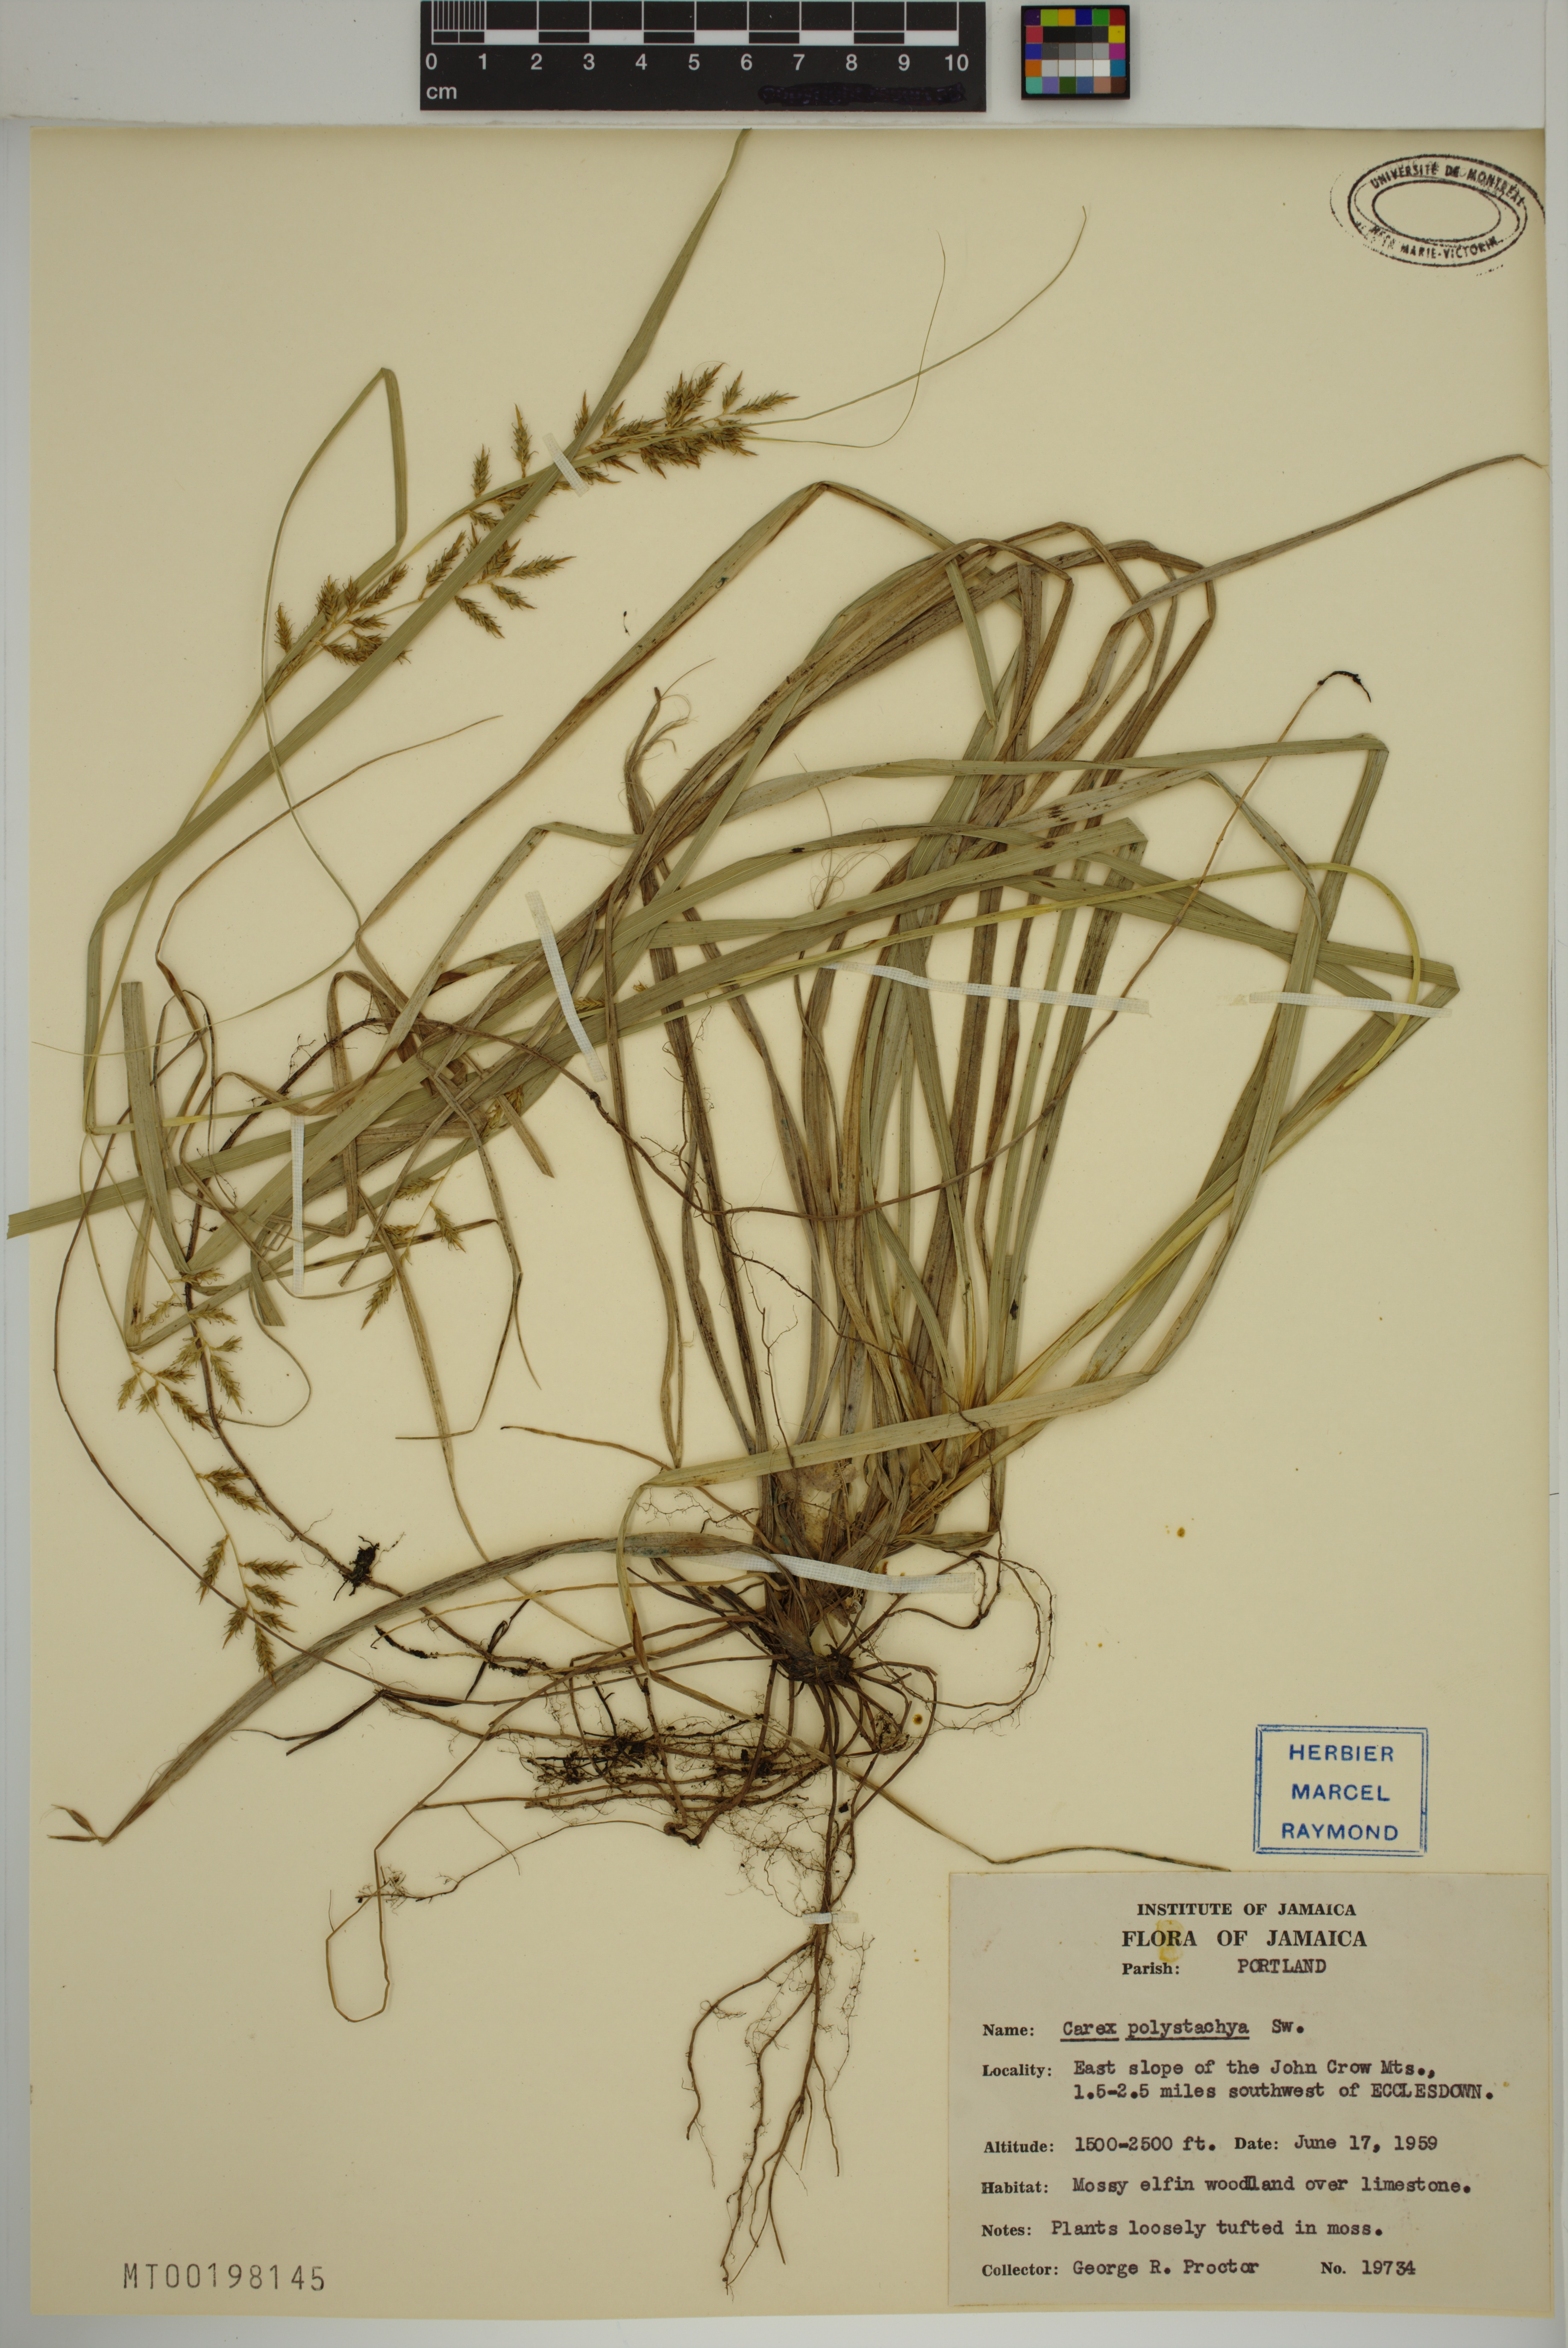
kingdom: Plantae
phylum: Tracheophyta
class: Liliopsida
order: Poales
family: Cyperaceae
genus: Carex
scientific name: Carex polystachya
